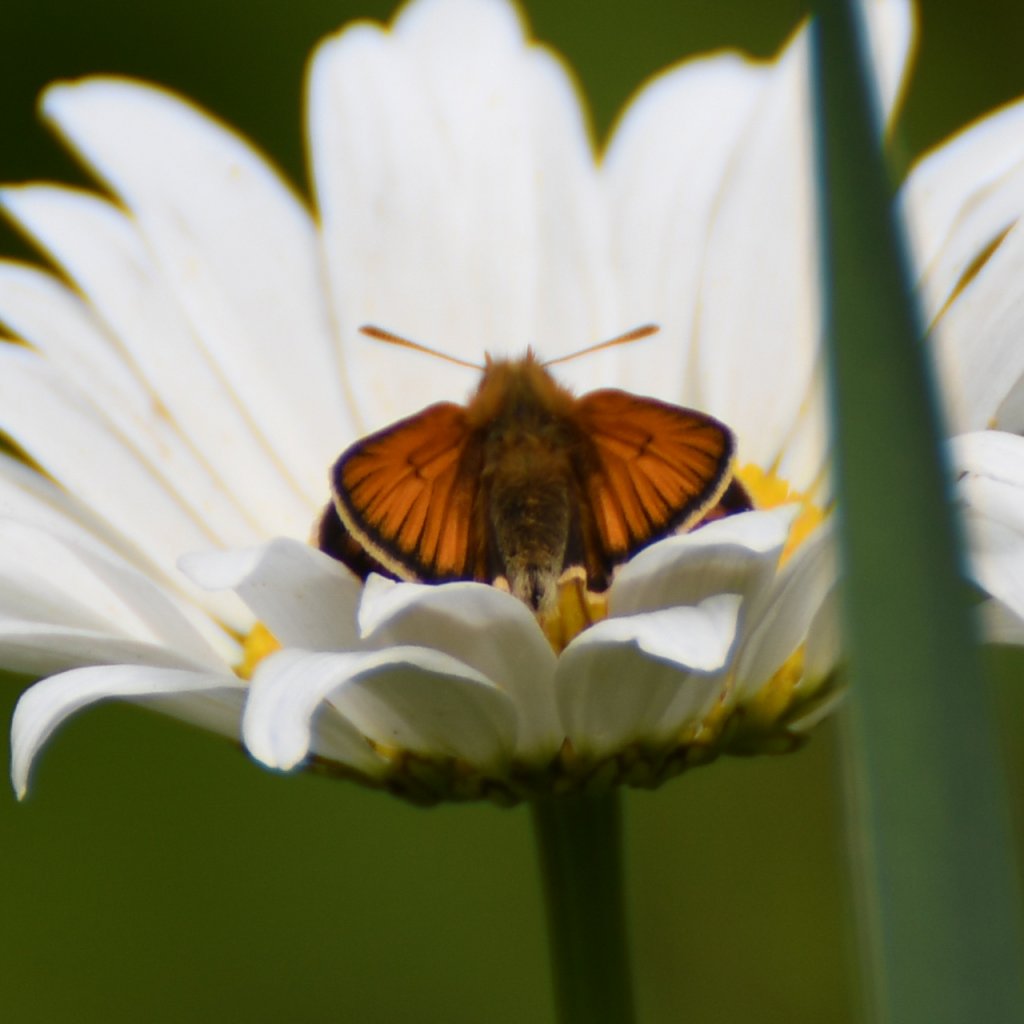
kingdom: Animalia
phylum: Arthropoda
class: Insecta
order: Lepidoptera
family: Hesperiidae
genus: Thymelicus
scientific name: Thymelicus lineola
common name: European Skipper
